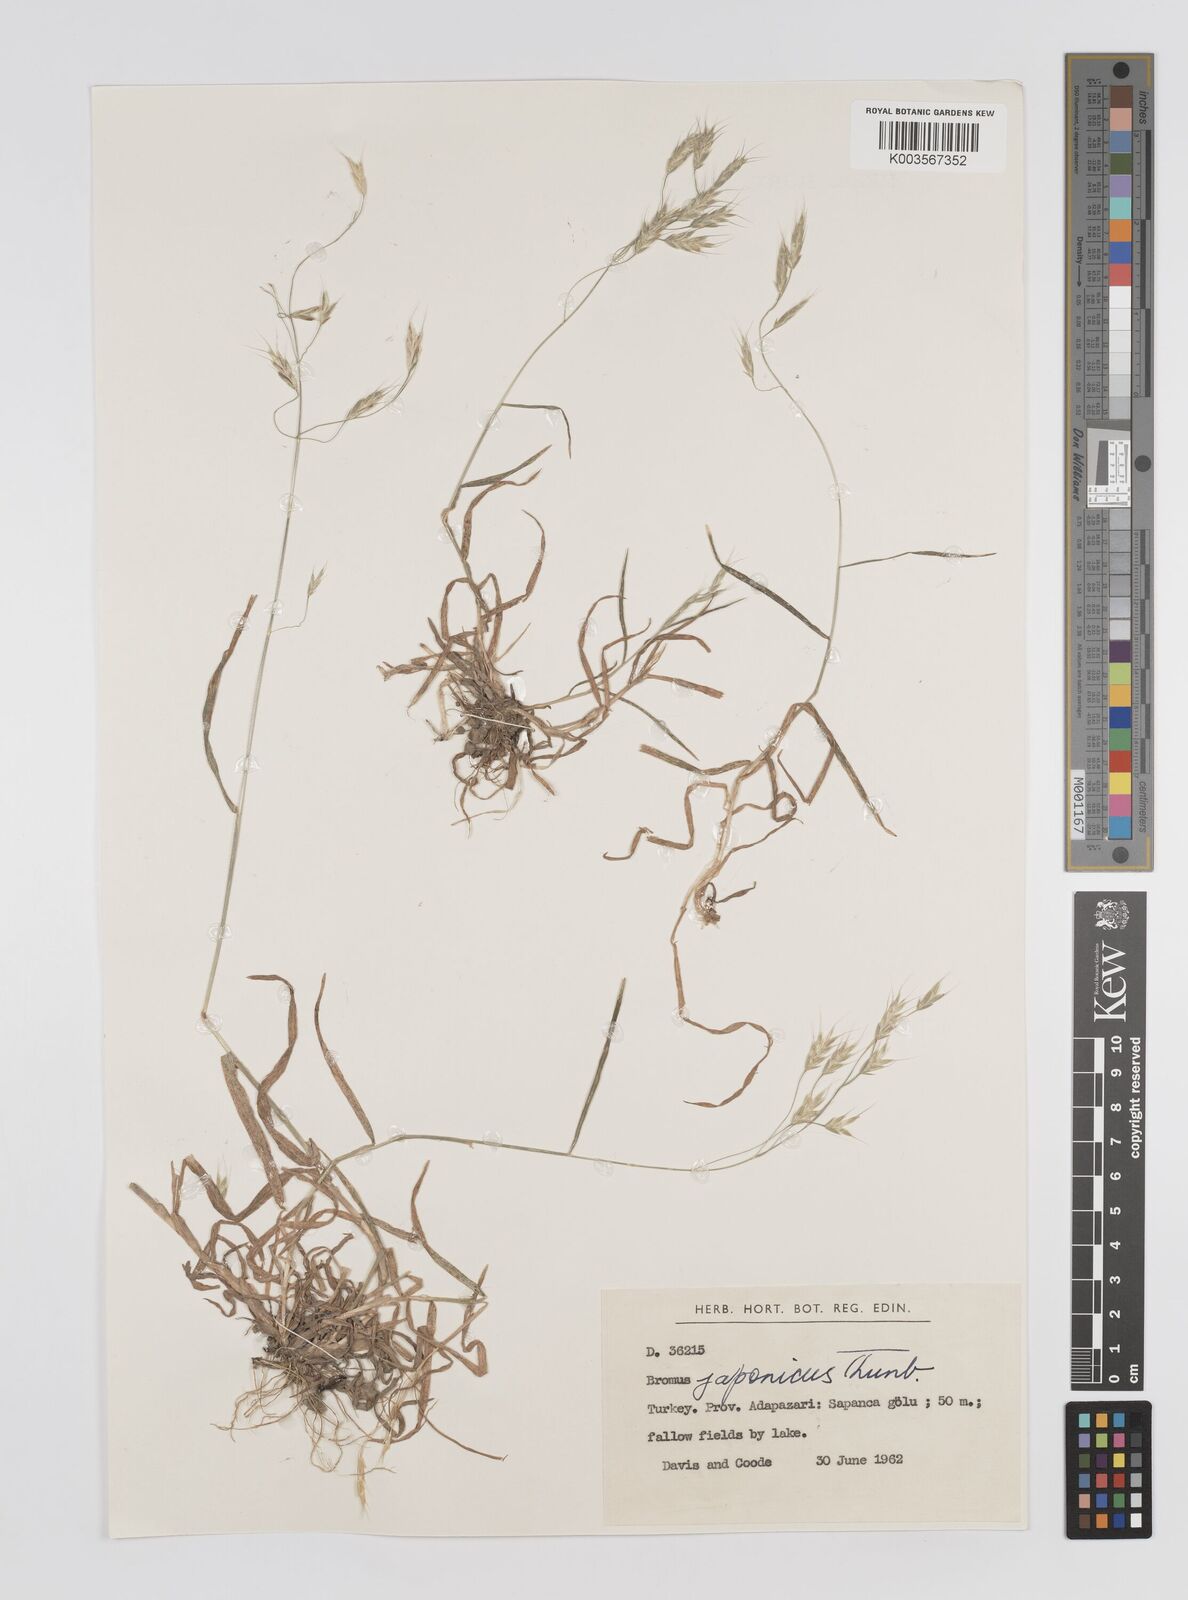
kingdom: Plantae
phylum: Tracheophyta
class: Liliopsida
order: Poales
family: Poaceae
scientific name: Poaceae
